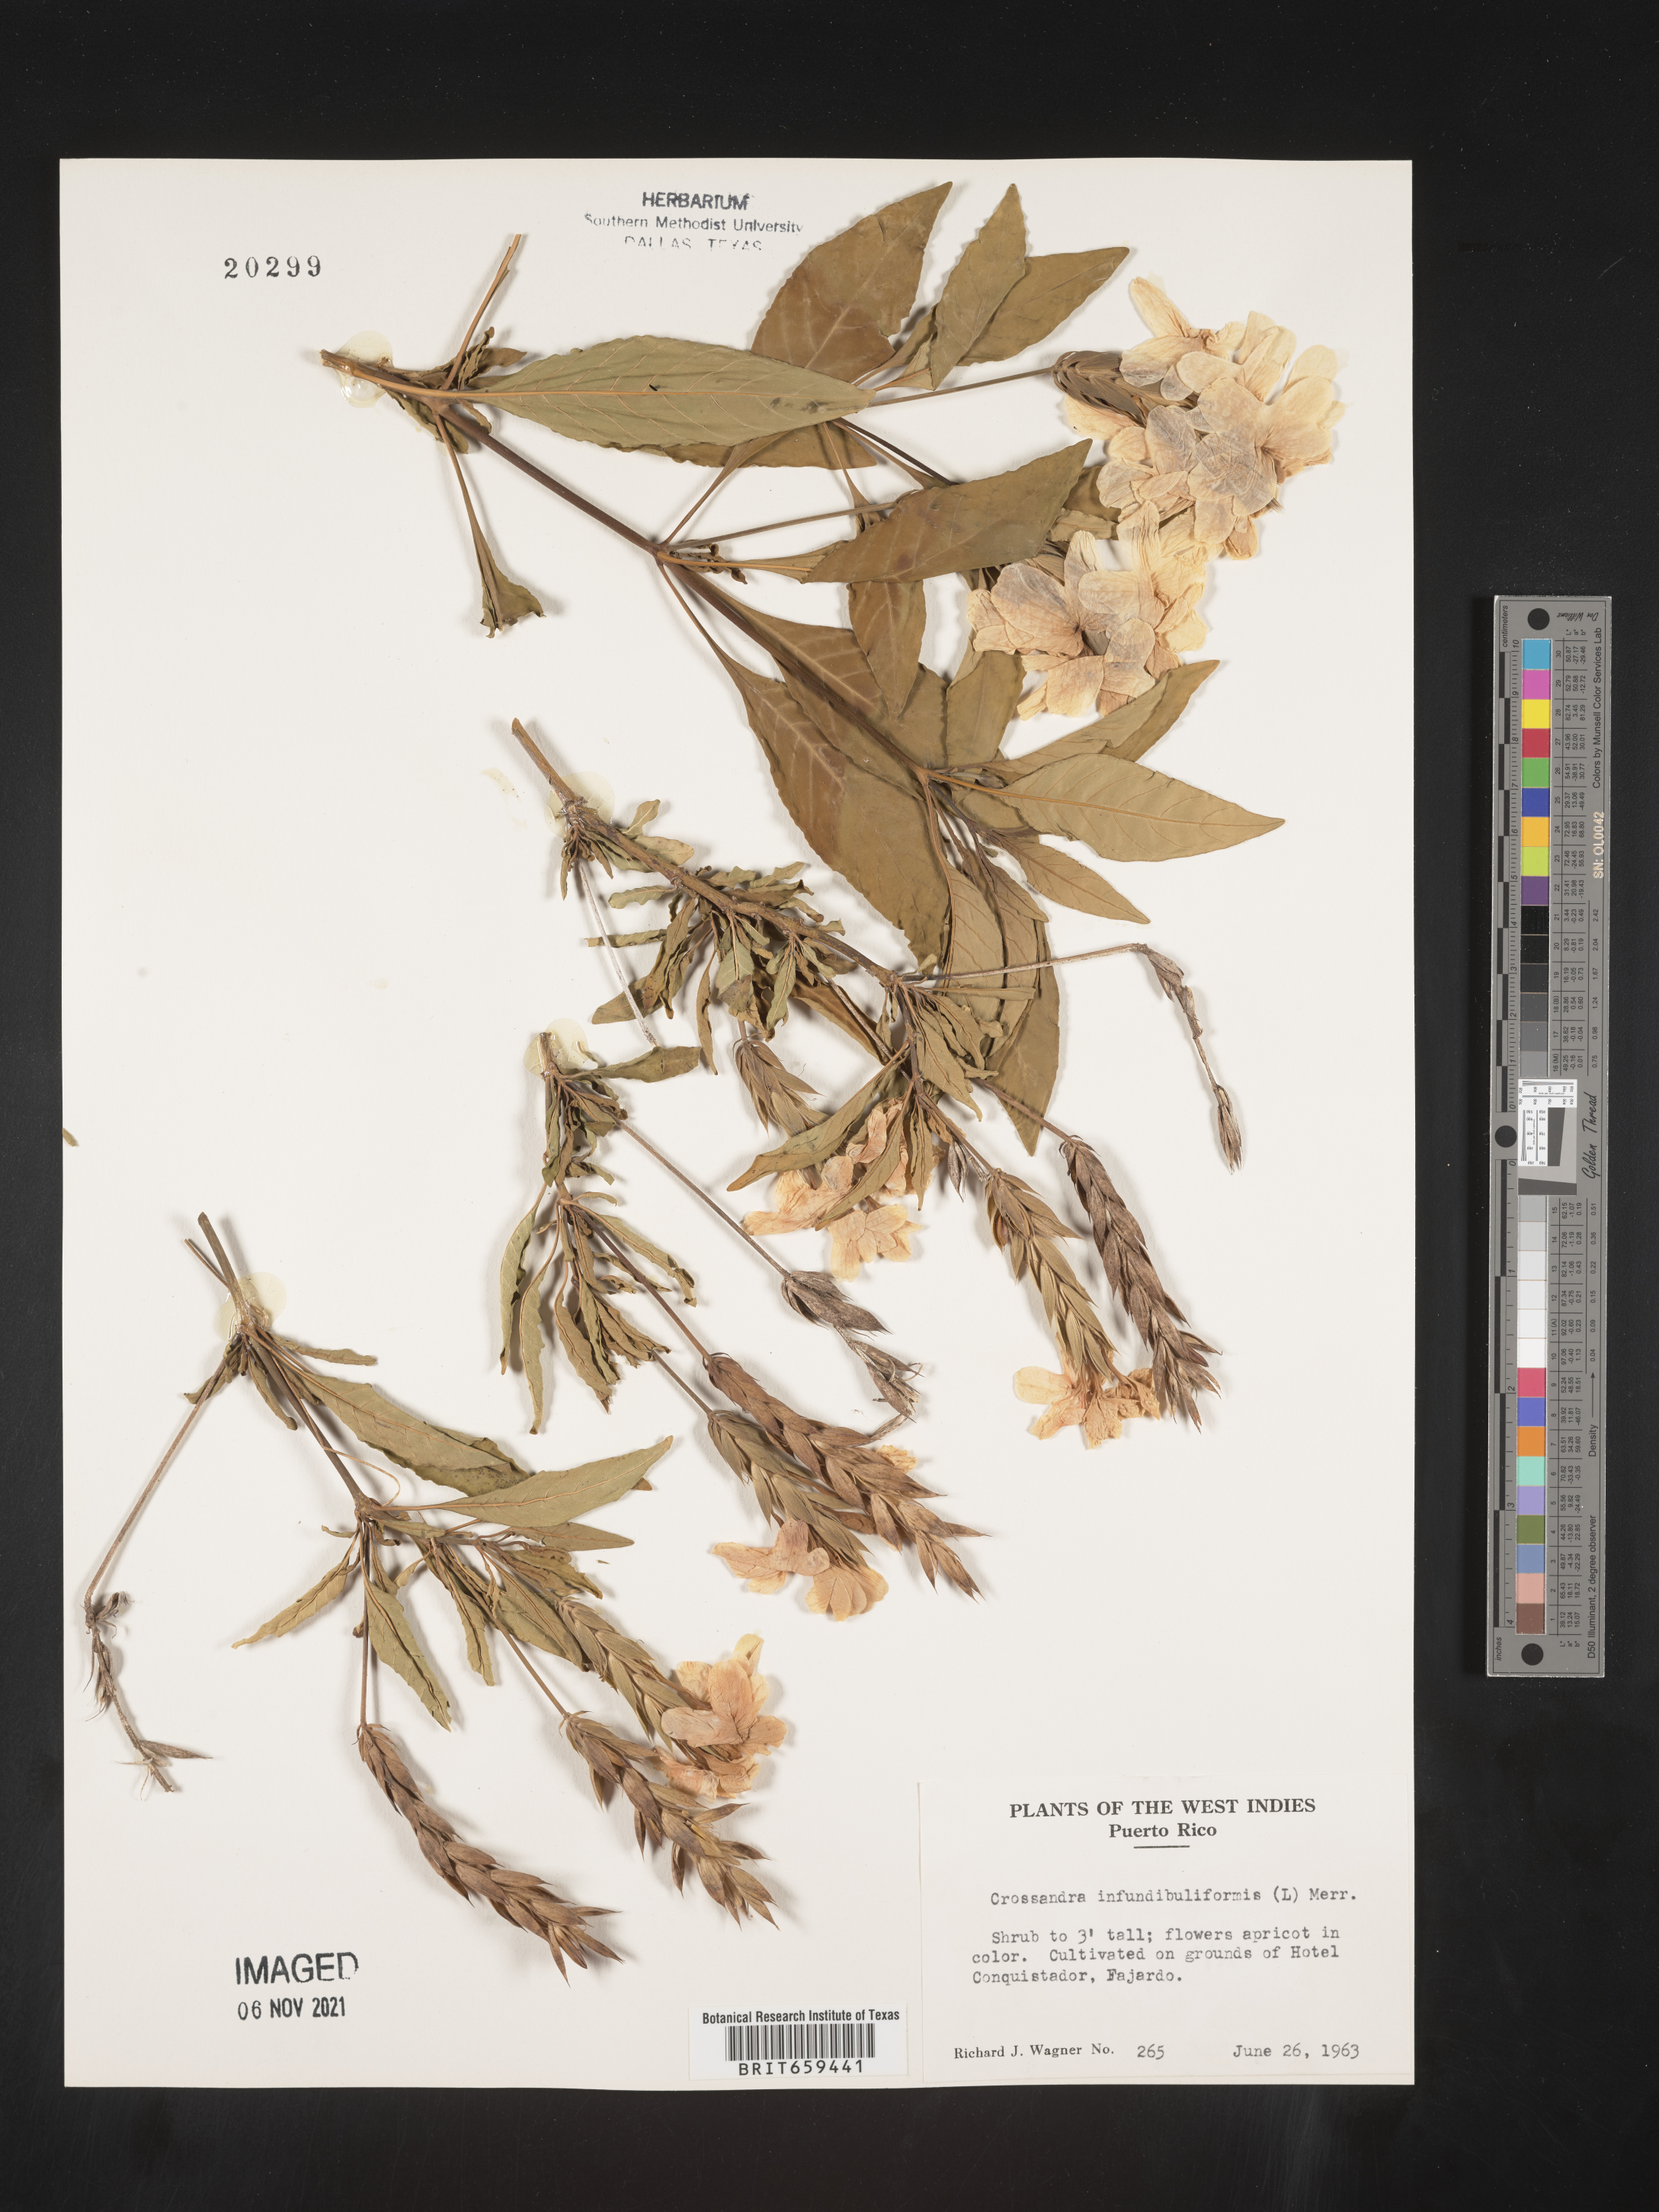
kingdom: Plantae
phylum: Tracheophyta
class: Magnoliopsida
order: Lamiales
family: Acanthaceae
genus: Crossandra
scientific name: Crossandra
